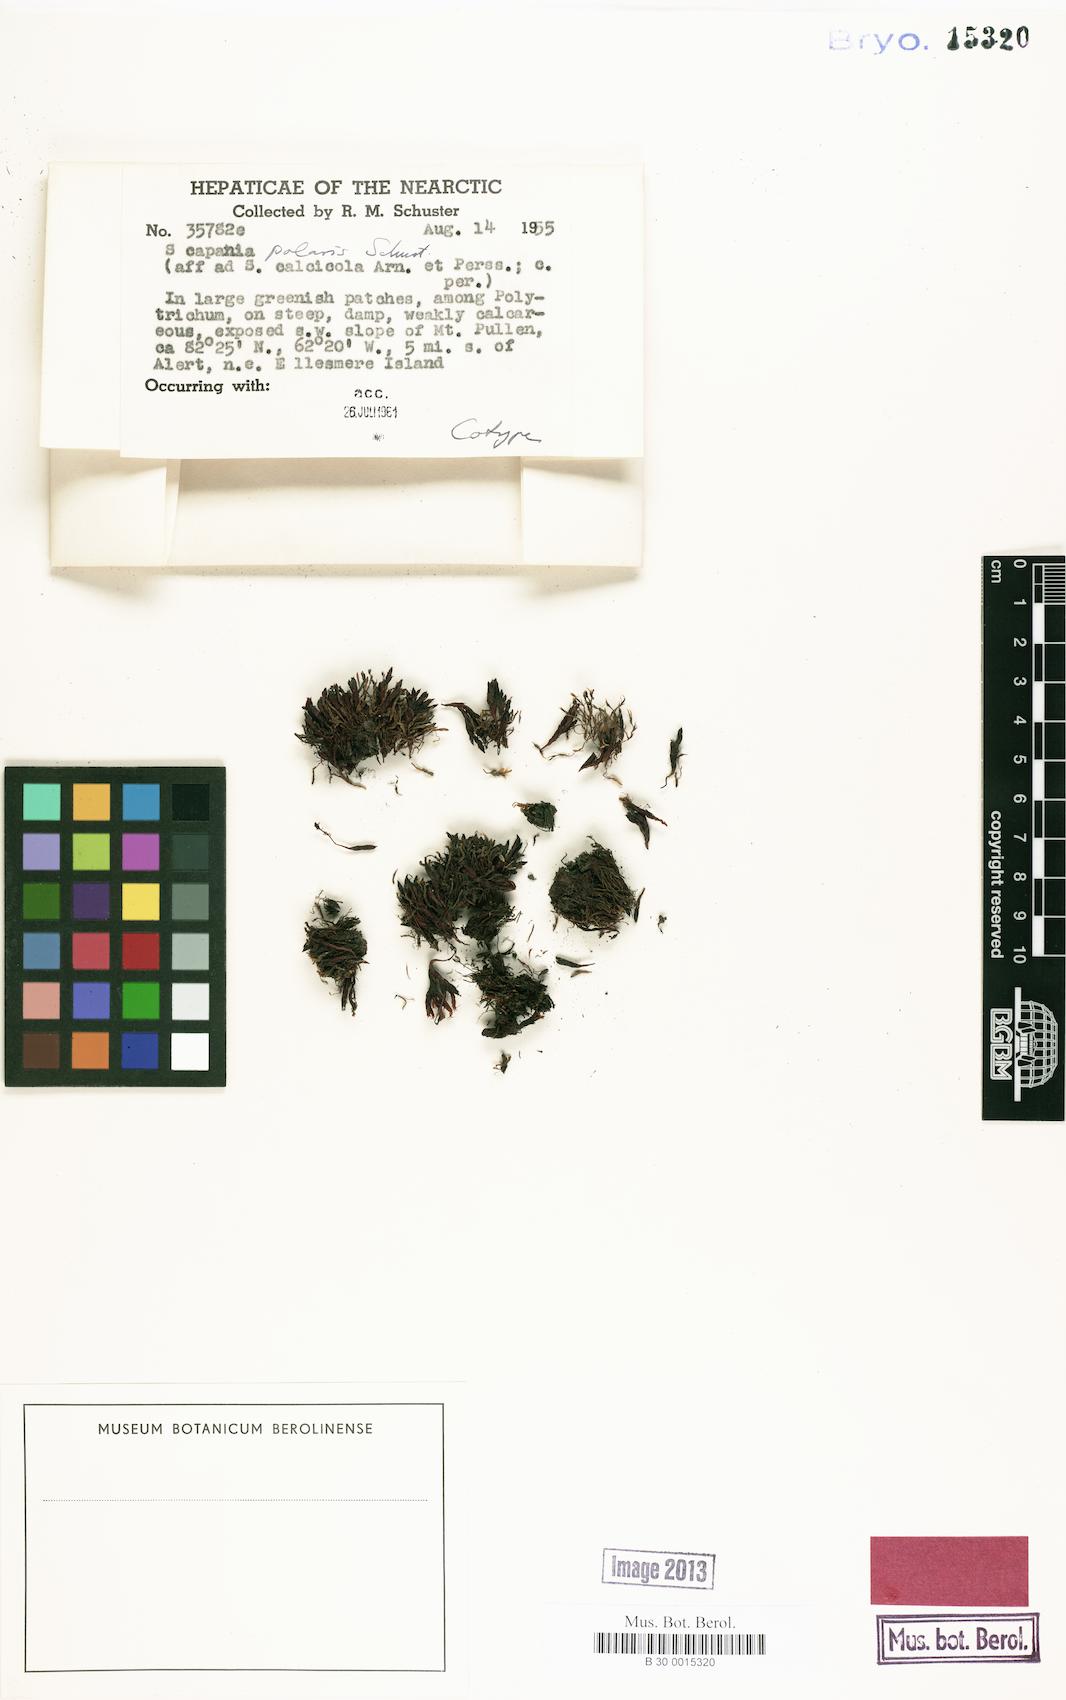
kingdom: Plantae
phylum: Marchantiophyta
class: Jungermanniopsida
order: Jungermanniales
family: Scapaniaceae
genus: Scapania
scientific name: Scapania
